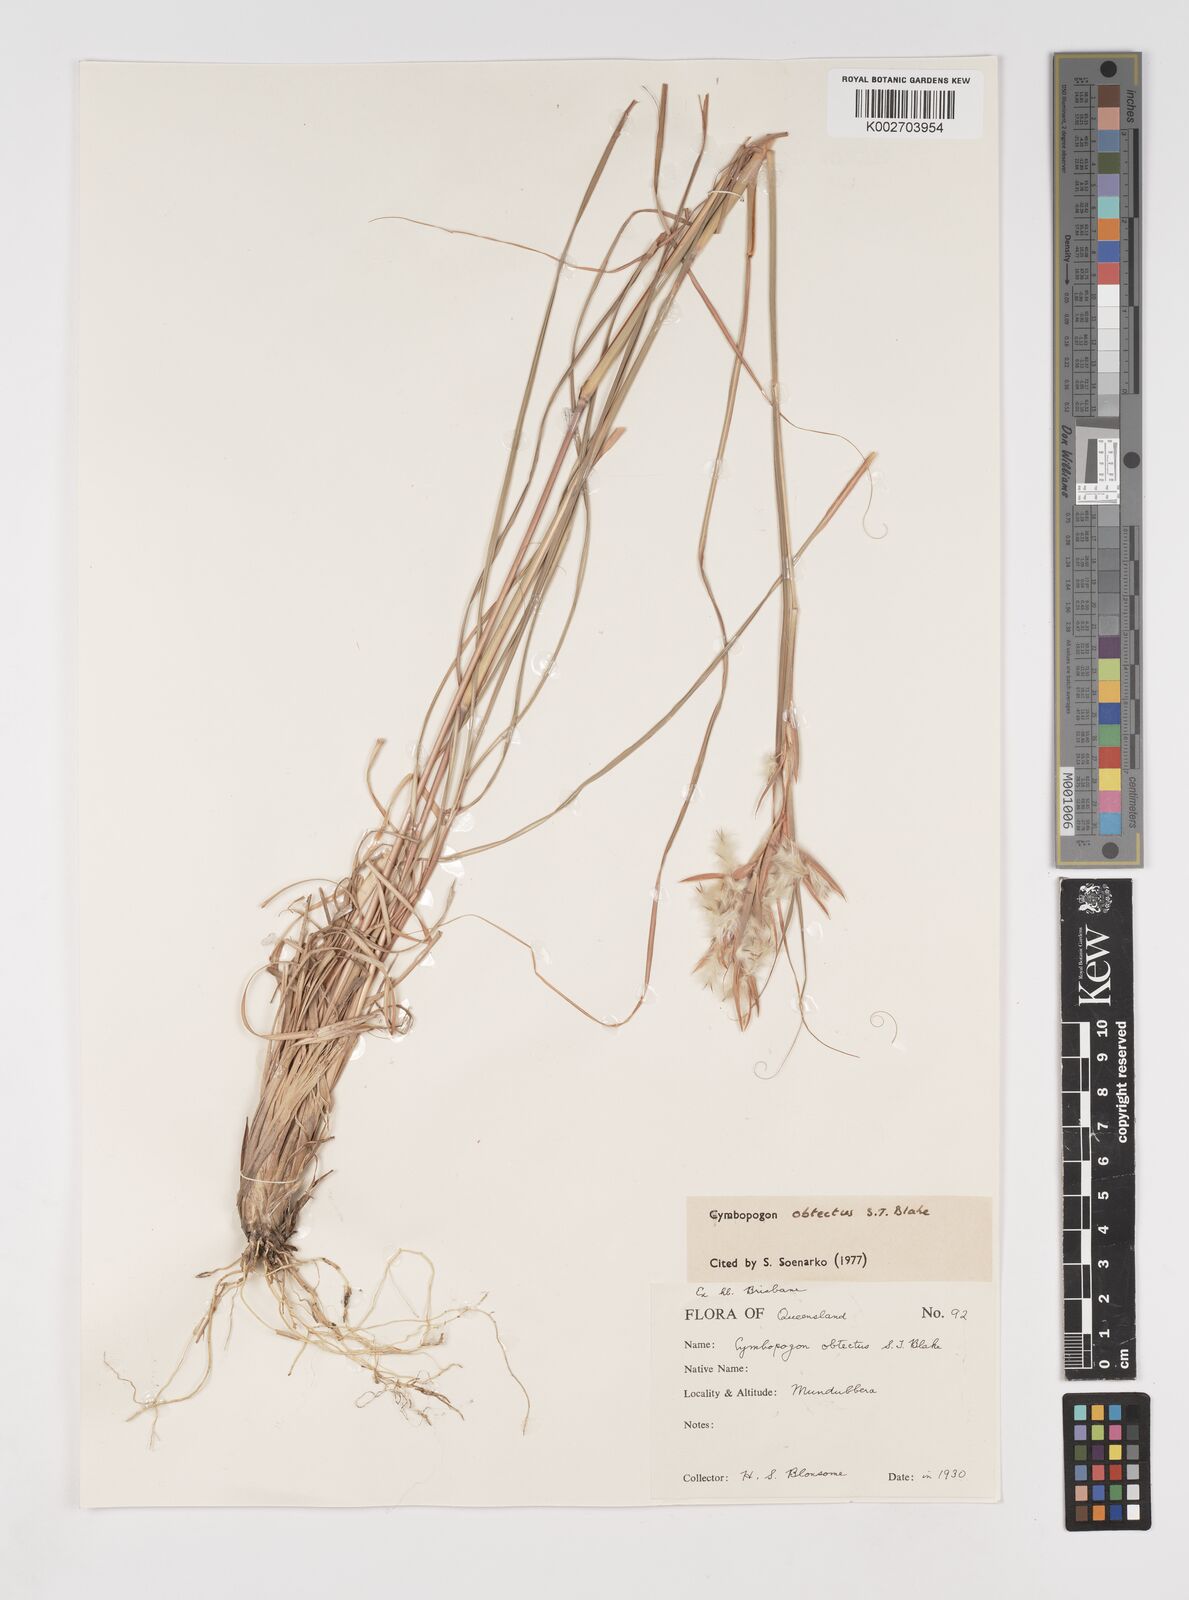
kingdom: Plantae
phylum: Tracheophyta
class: Liliopsida
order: Poales
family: Poaceae
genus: Cymbopogon
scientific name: Cymbopogon obtectus
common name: Silky heads
